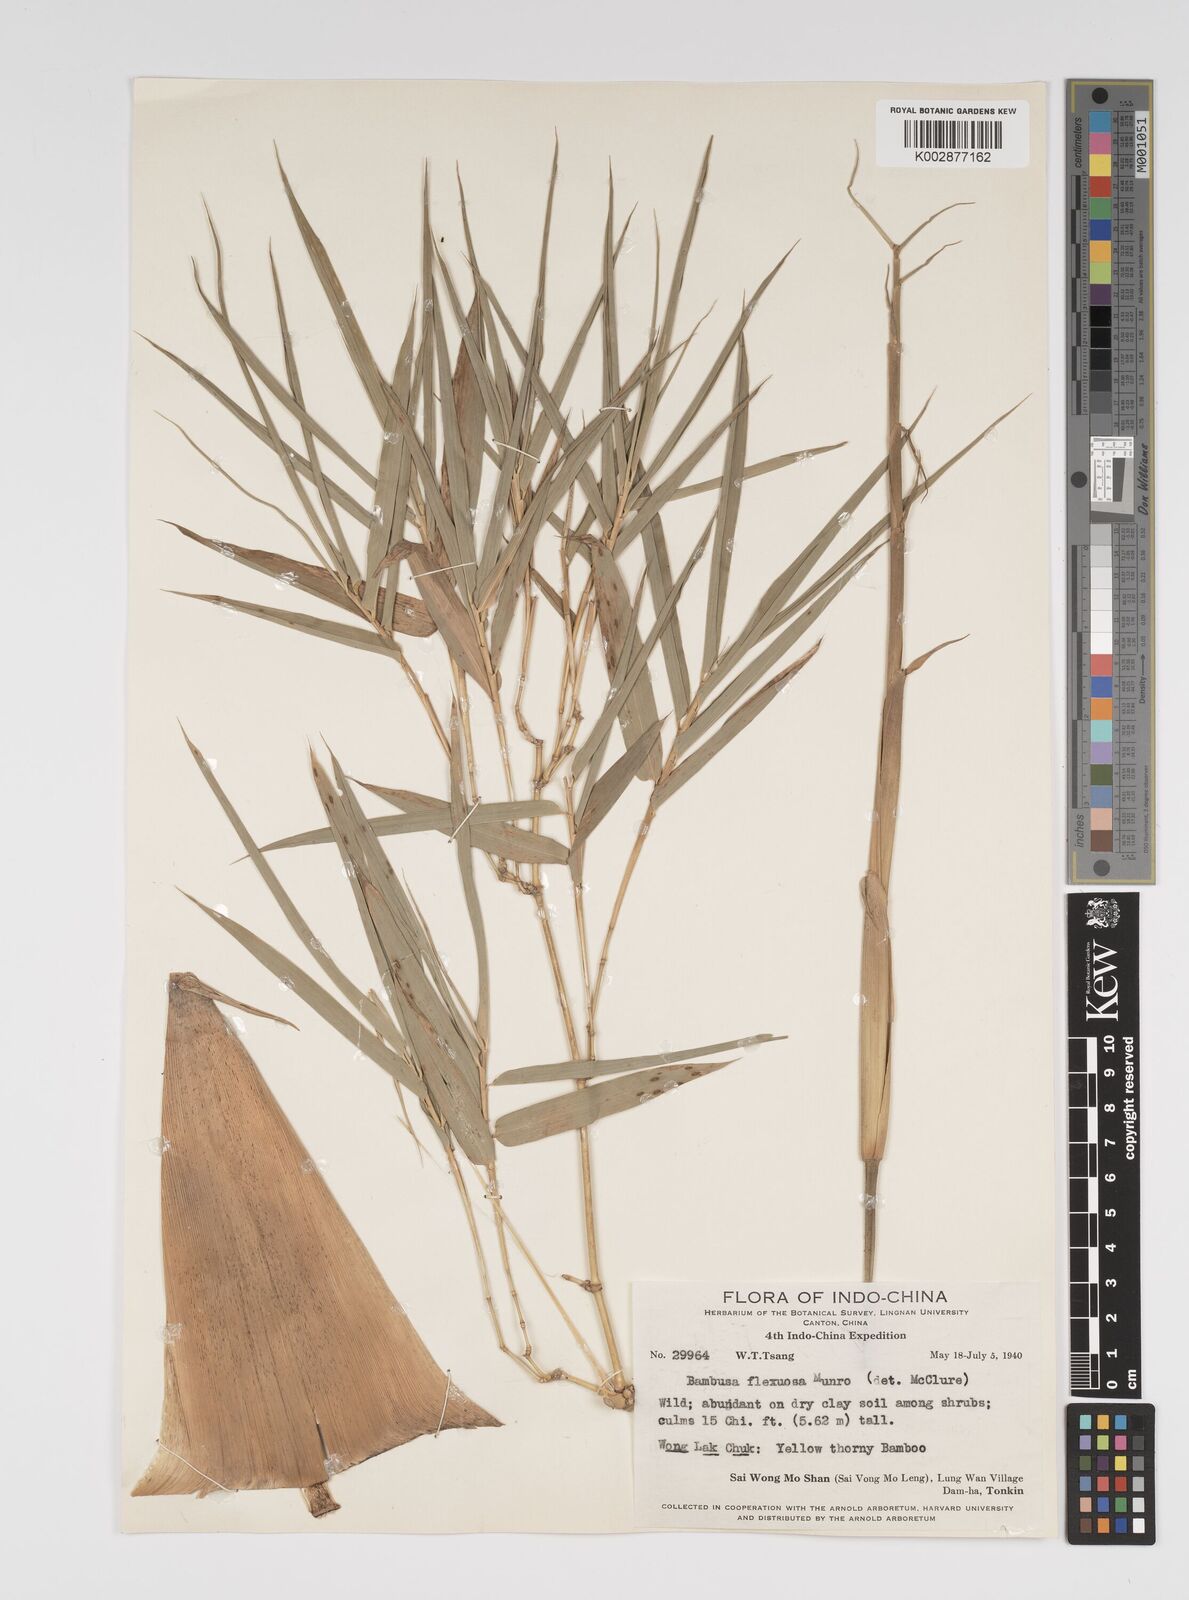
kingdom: Plantae
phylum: Tracheophyta
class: Liliopsida
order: Poales
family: Poaceae
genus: Bambusa
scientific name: Bambusa flexuosa
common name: Lesser thorny bamboo
